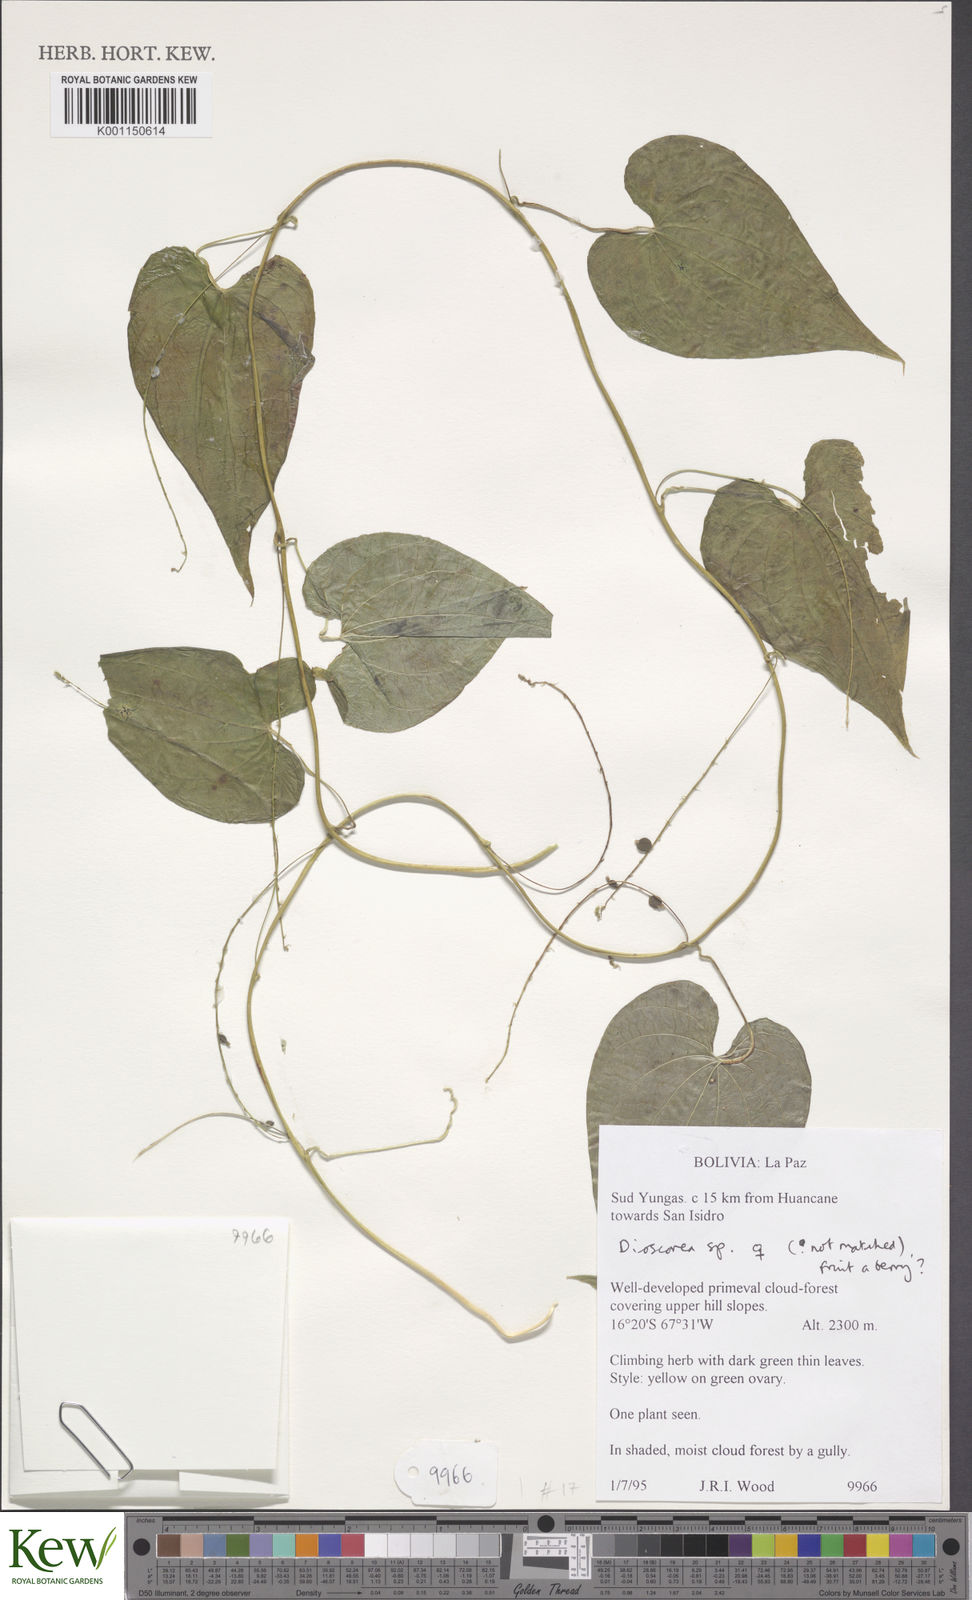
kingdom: Plantae
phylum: Tracheophyta
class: Liliopsida
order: Dioscoreales
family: Dioscoreaceae
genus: Dioscorea
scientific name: Dioscorea
